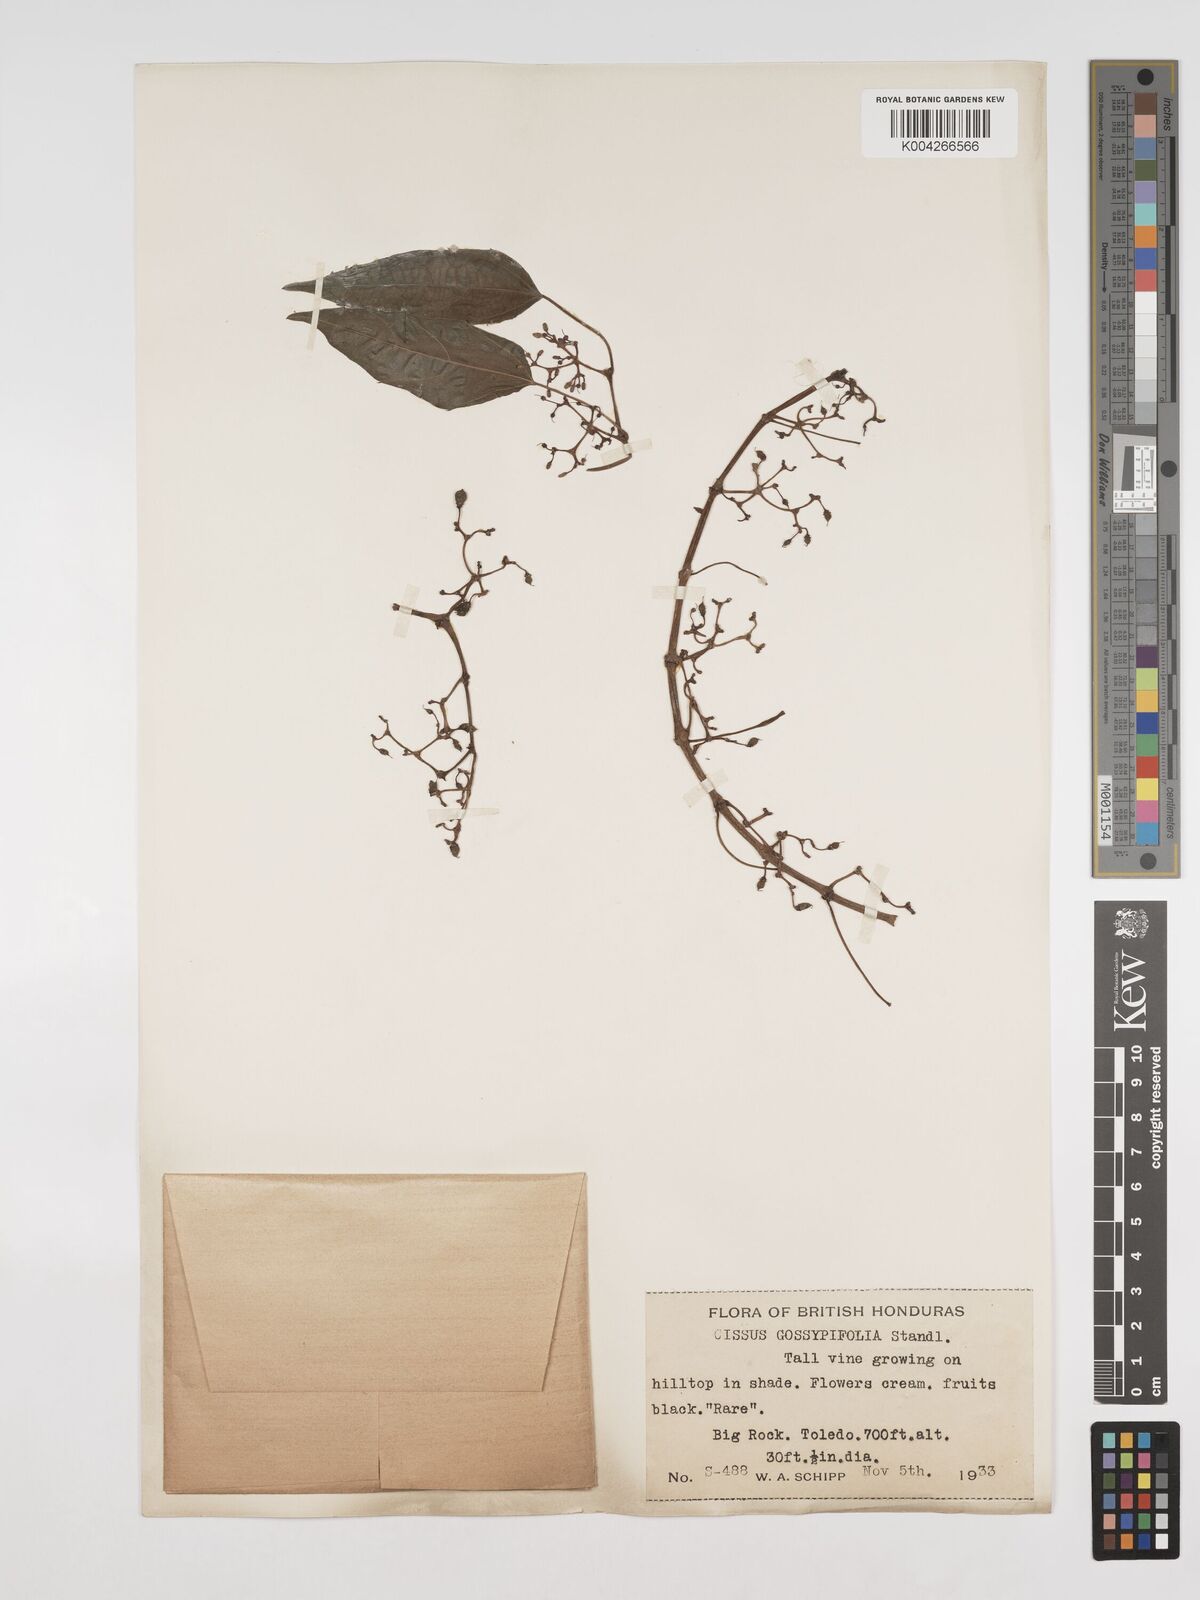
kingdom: Plantae
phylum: Tracheophyta
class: Magnoliopsida
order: Vitales
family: Vitaceae
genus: Cissus
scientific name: Cissus gossypiifolia
